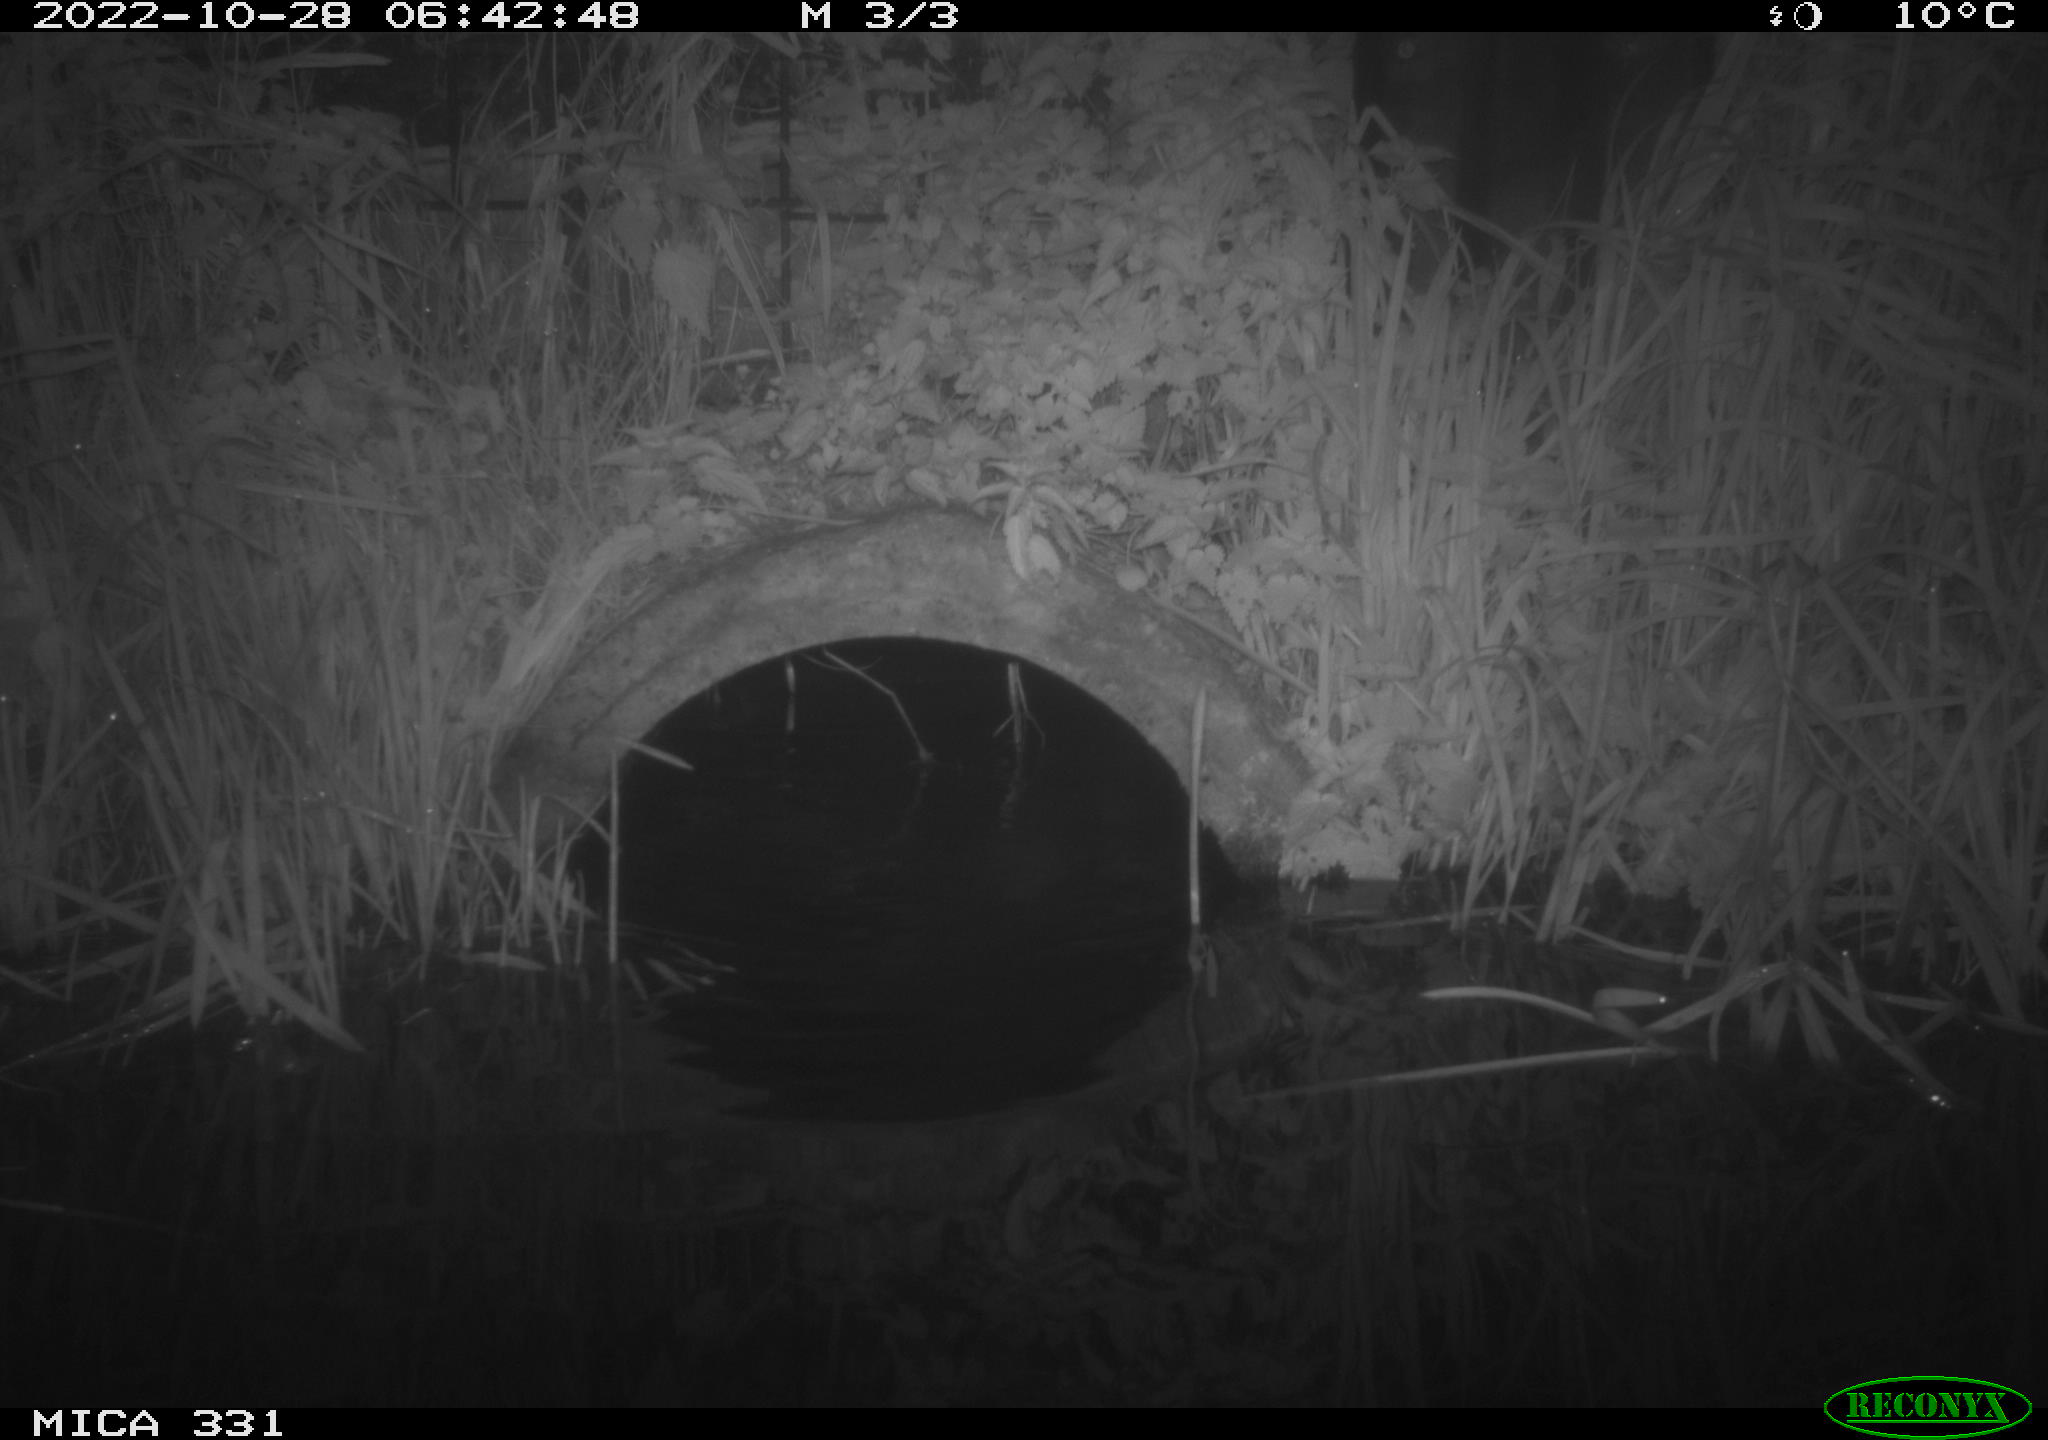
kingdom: Animalia
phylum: Chordata
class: Mammalia
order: Rodentia
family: Muridae
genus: Rattus
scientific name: Rattus norvegicus
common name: Brown rat
